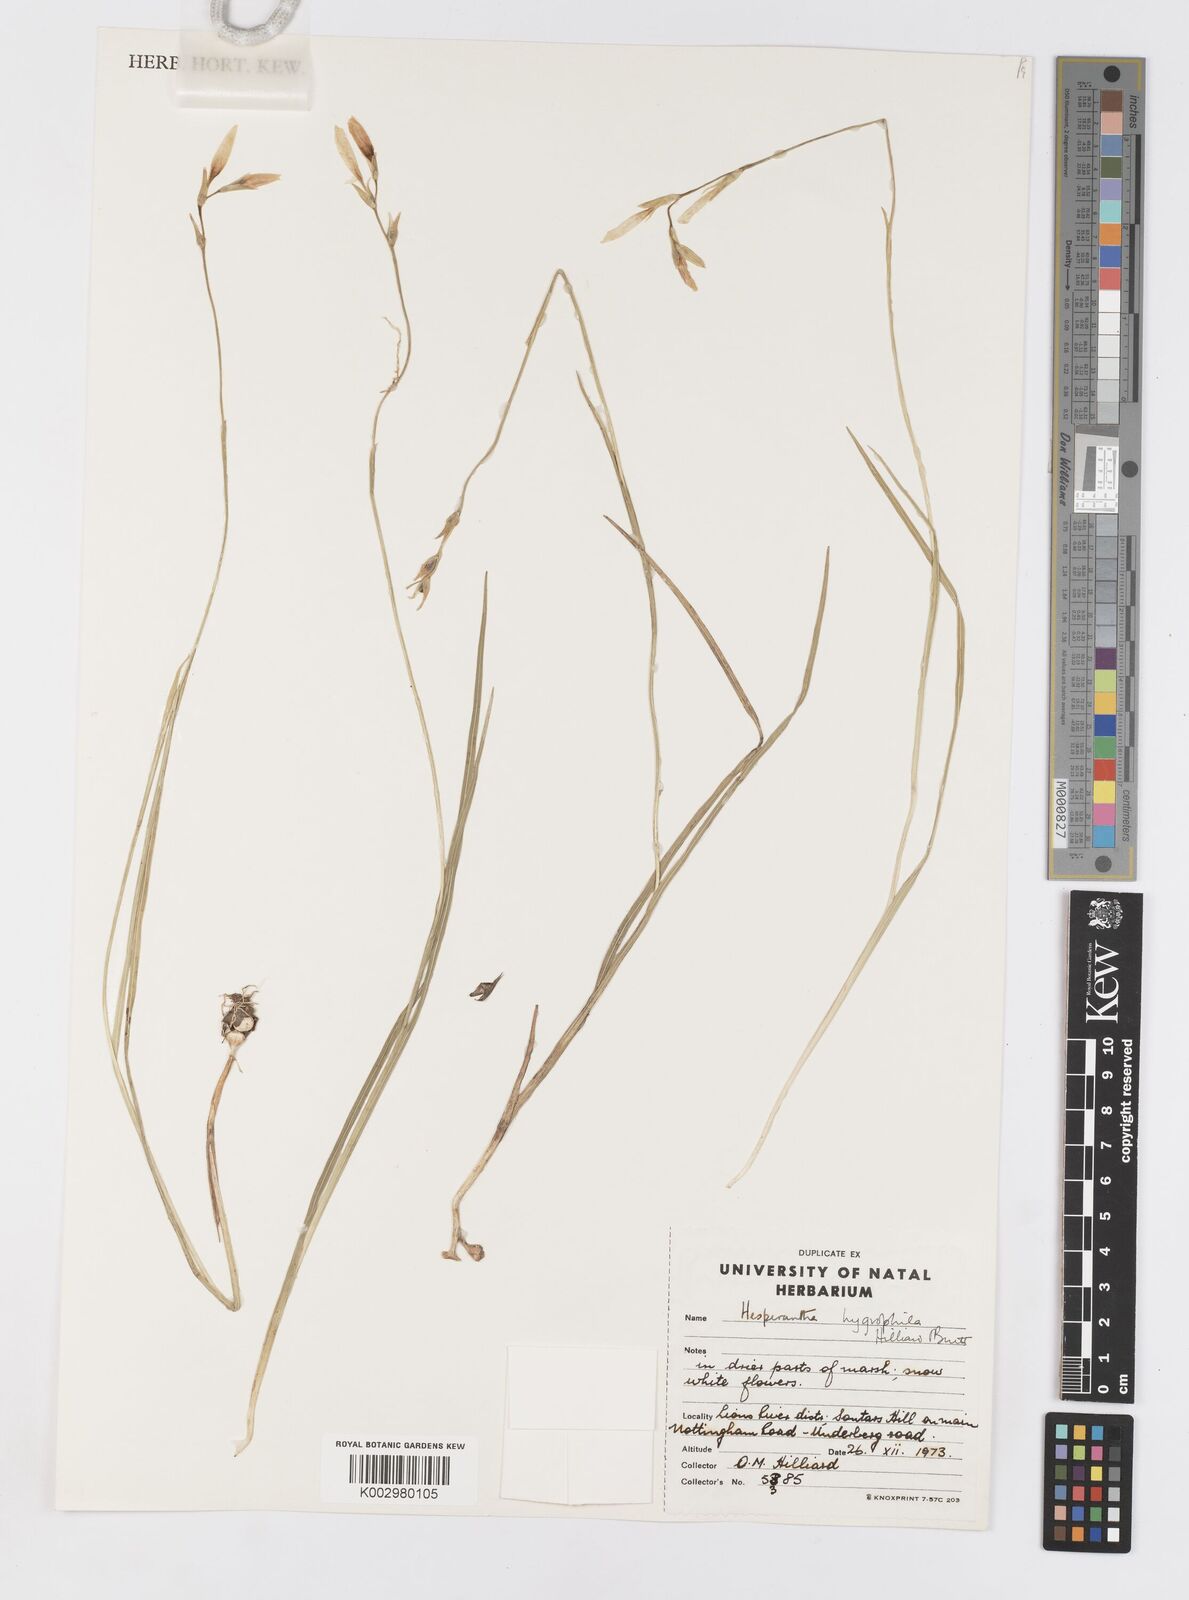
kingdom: Plantae
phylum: Tracheophyta
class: Liliopsida
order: Asparagales
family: Iridaceae
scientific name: Iridaceae
